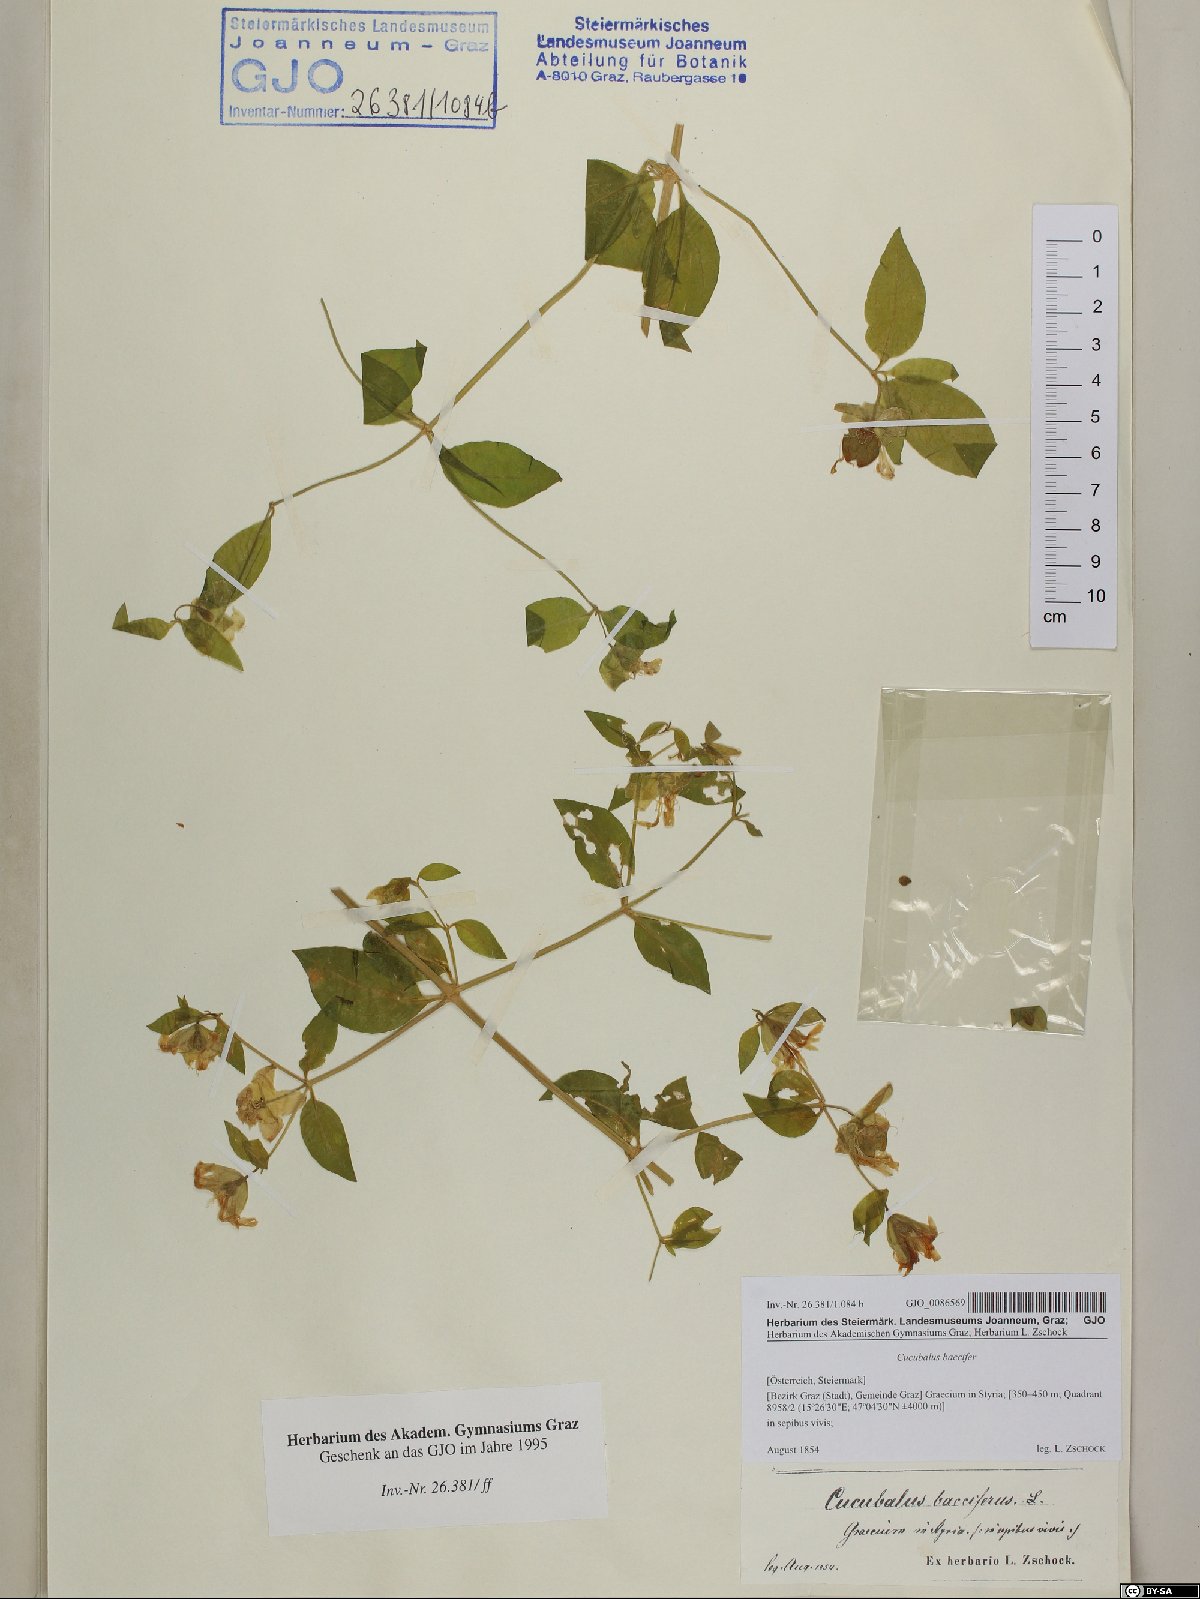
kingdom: Plantae
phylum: Tracheophyta
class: Magnoliopsida
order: Caryophyllales
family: Caryophyllaceae
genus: Silene
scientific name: Silene baccifera
